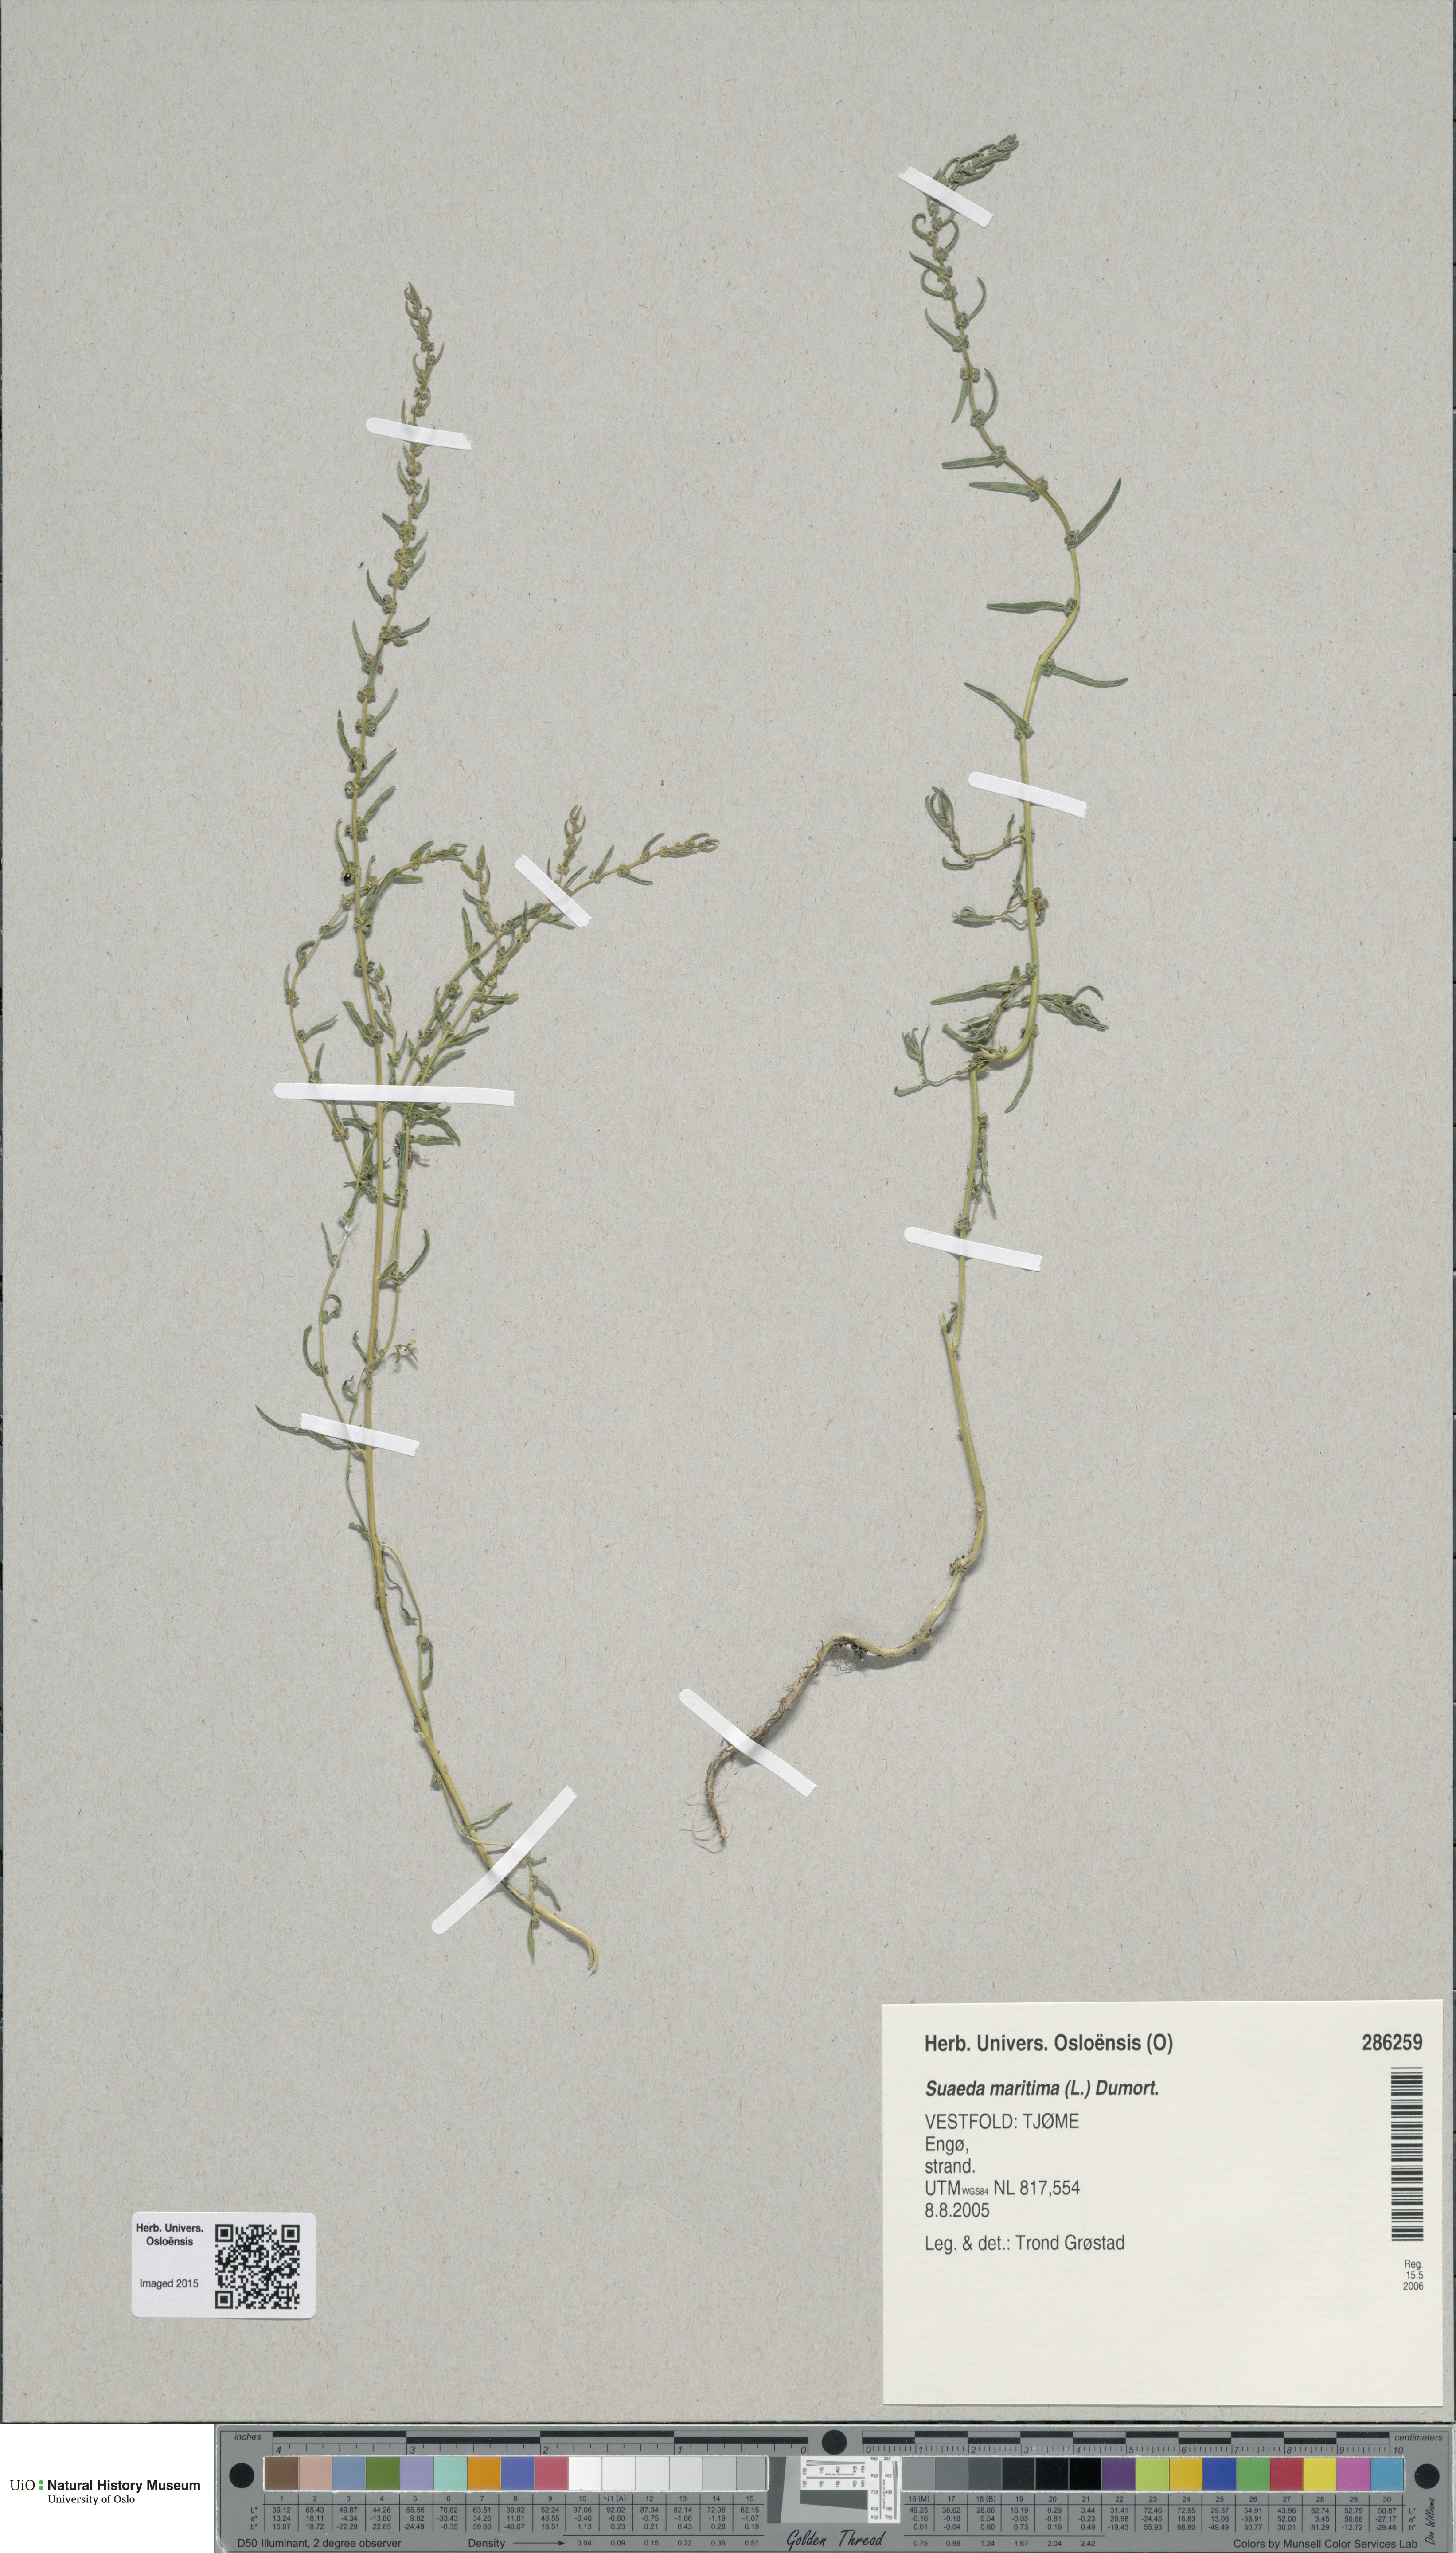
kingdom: Plantae
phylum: Tracheophyta
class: Magnoliopsida
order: Caryophyllales
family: Amaranthaceae
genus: Suaeda
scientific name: Suaeda maritima
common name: Annual sea-blite
